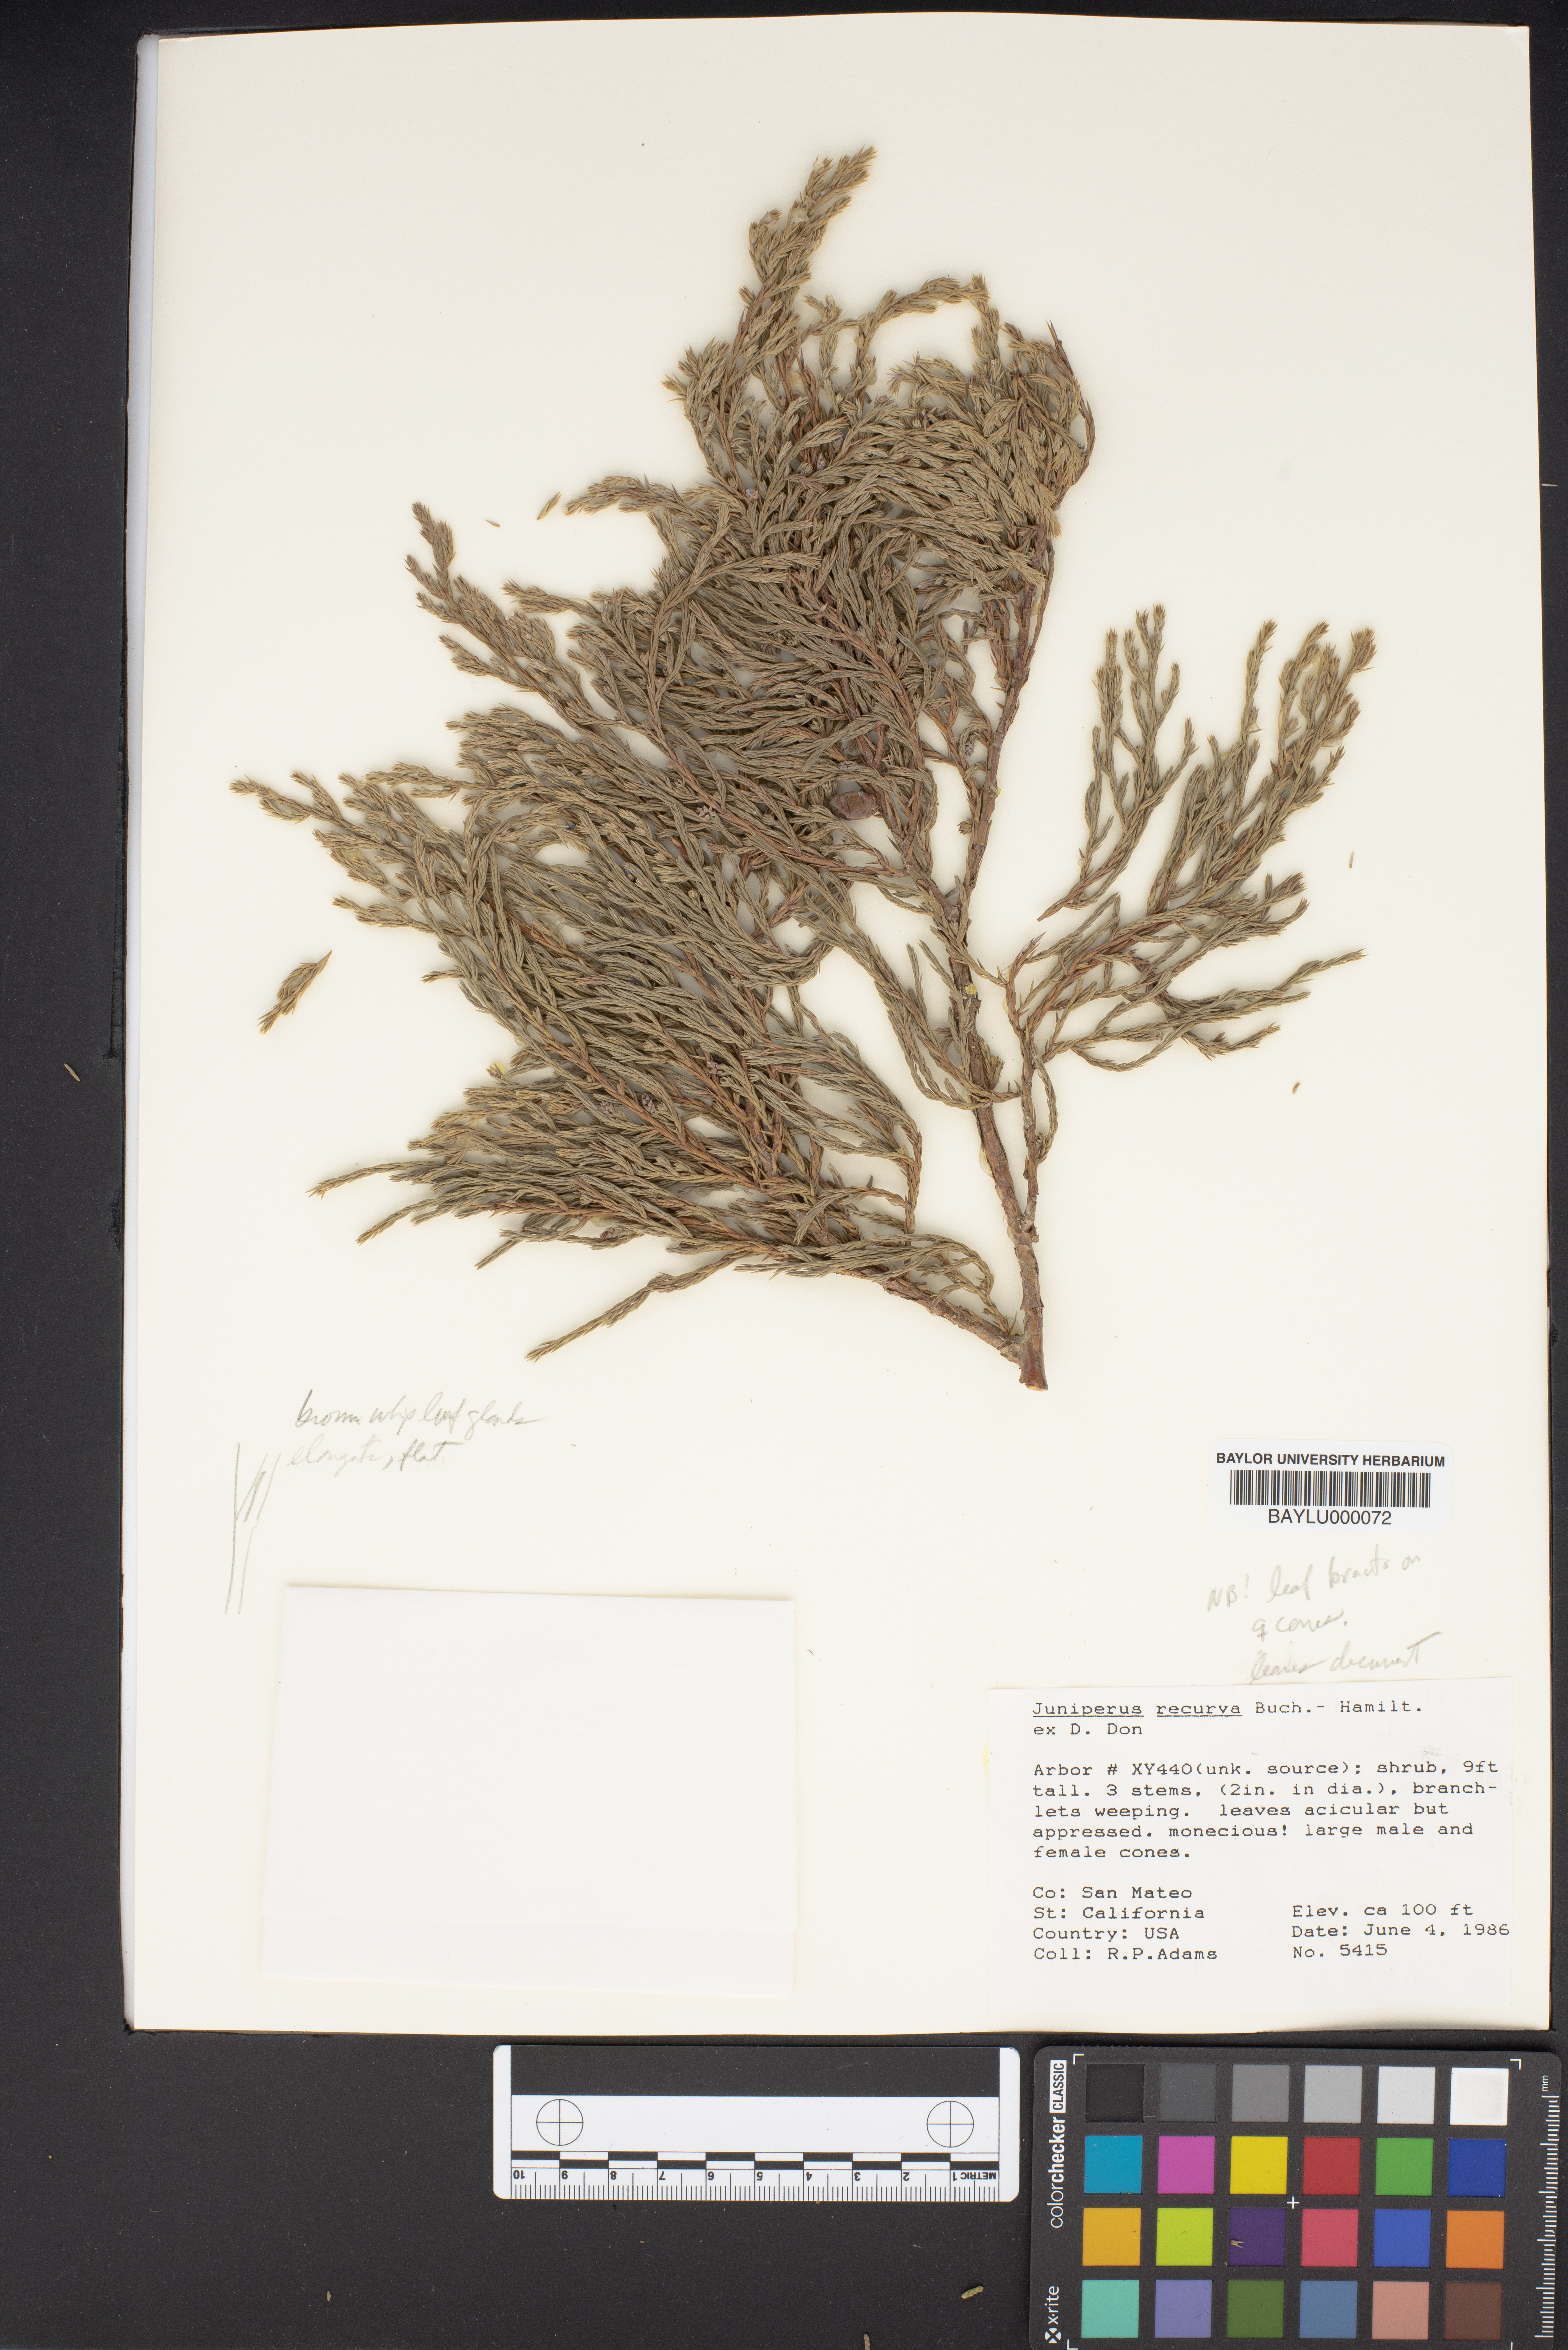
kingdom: Plantae
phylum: Tracheophyta
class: Pinopsida
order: Pinales
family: Cupressaceae
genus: Juniperus
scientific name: Juniperus recurva
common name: Drooping juniper
